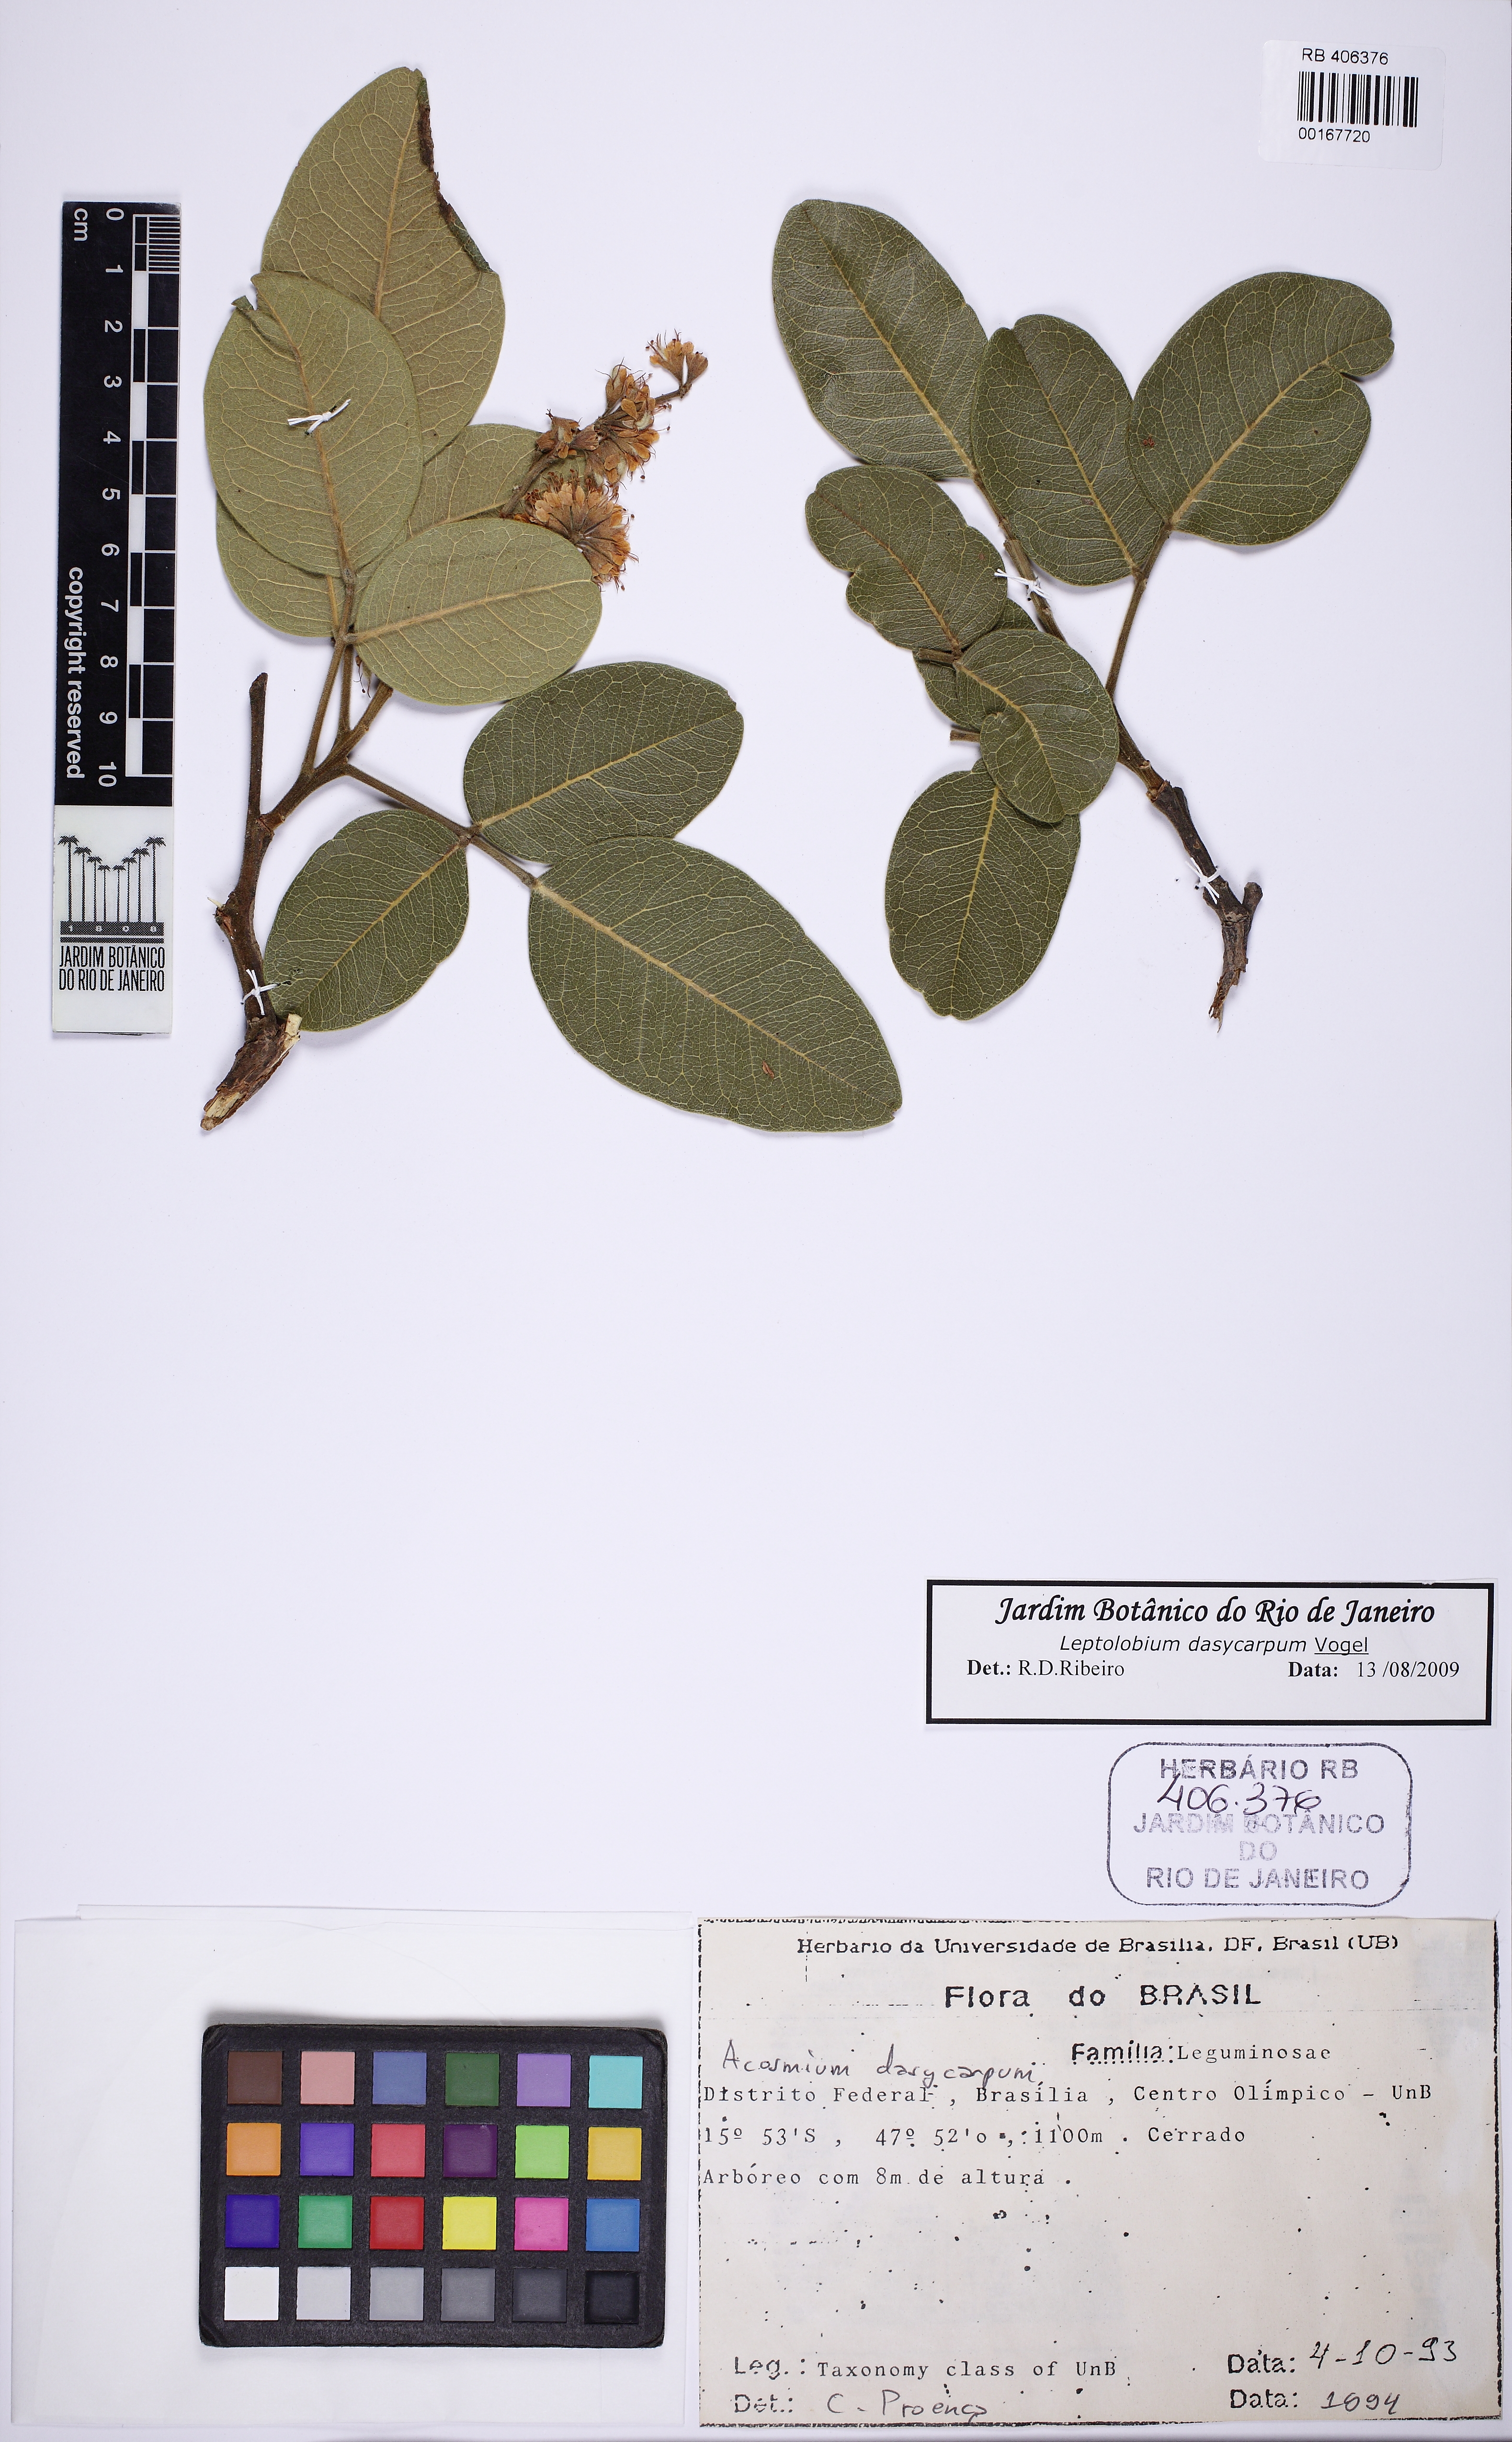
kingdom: Plantae
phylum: Tracheophyta
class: Magnoliopsida
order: Fabales
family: Fabaceae
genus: Leptolobium
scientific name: Leptolobium dasycarpum
